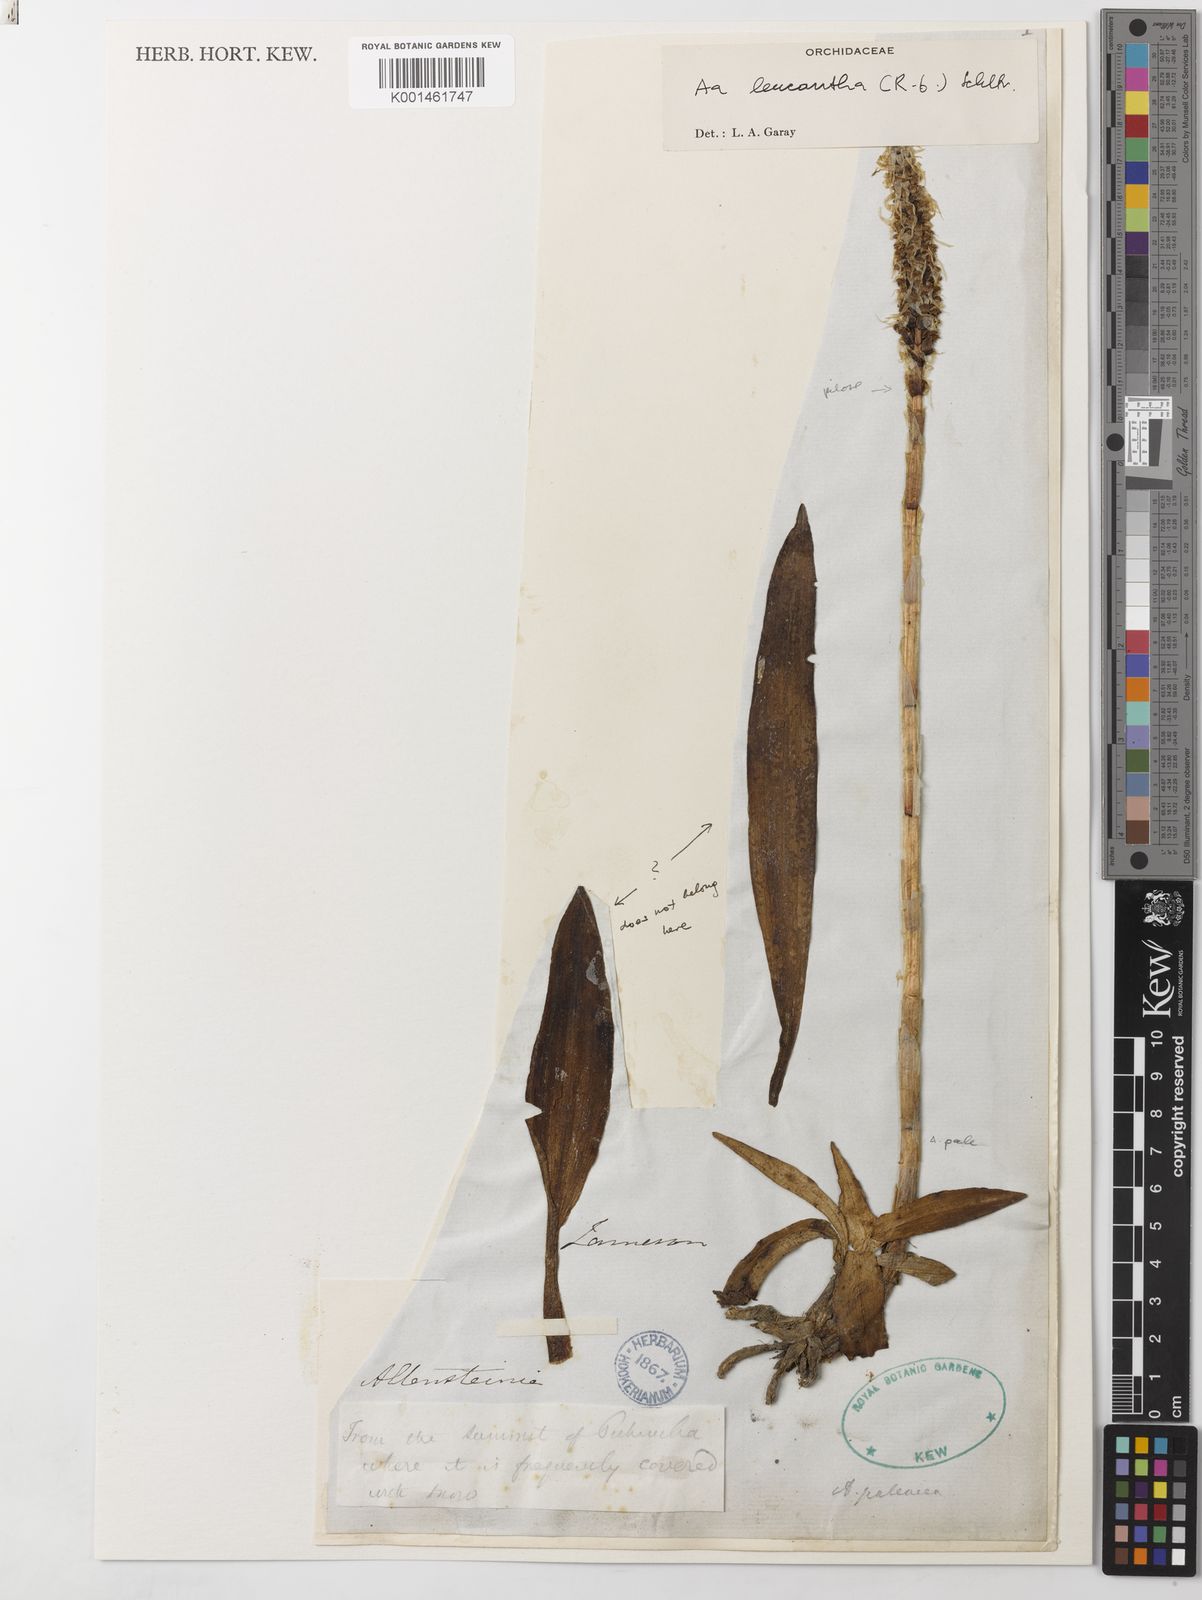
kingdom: Plantae
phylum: Tracheophyta
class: Liliopsida
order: Asparagales
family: Orchidaceae
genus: Aa
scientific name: Aa leucantha
